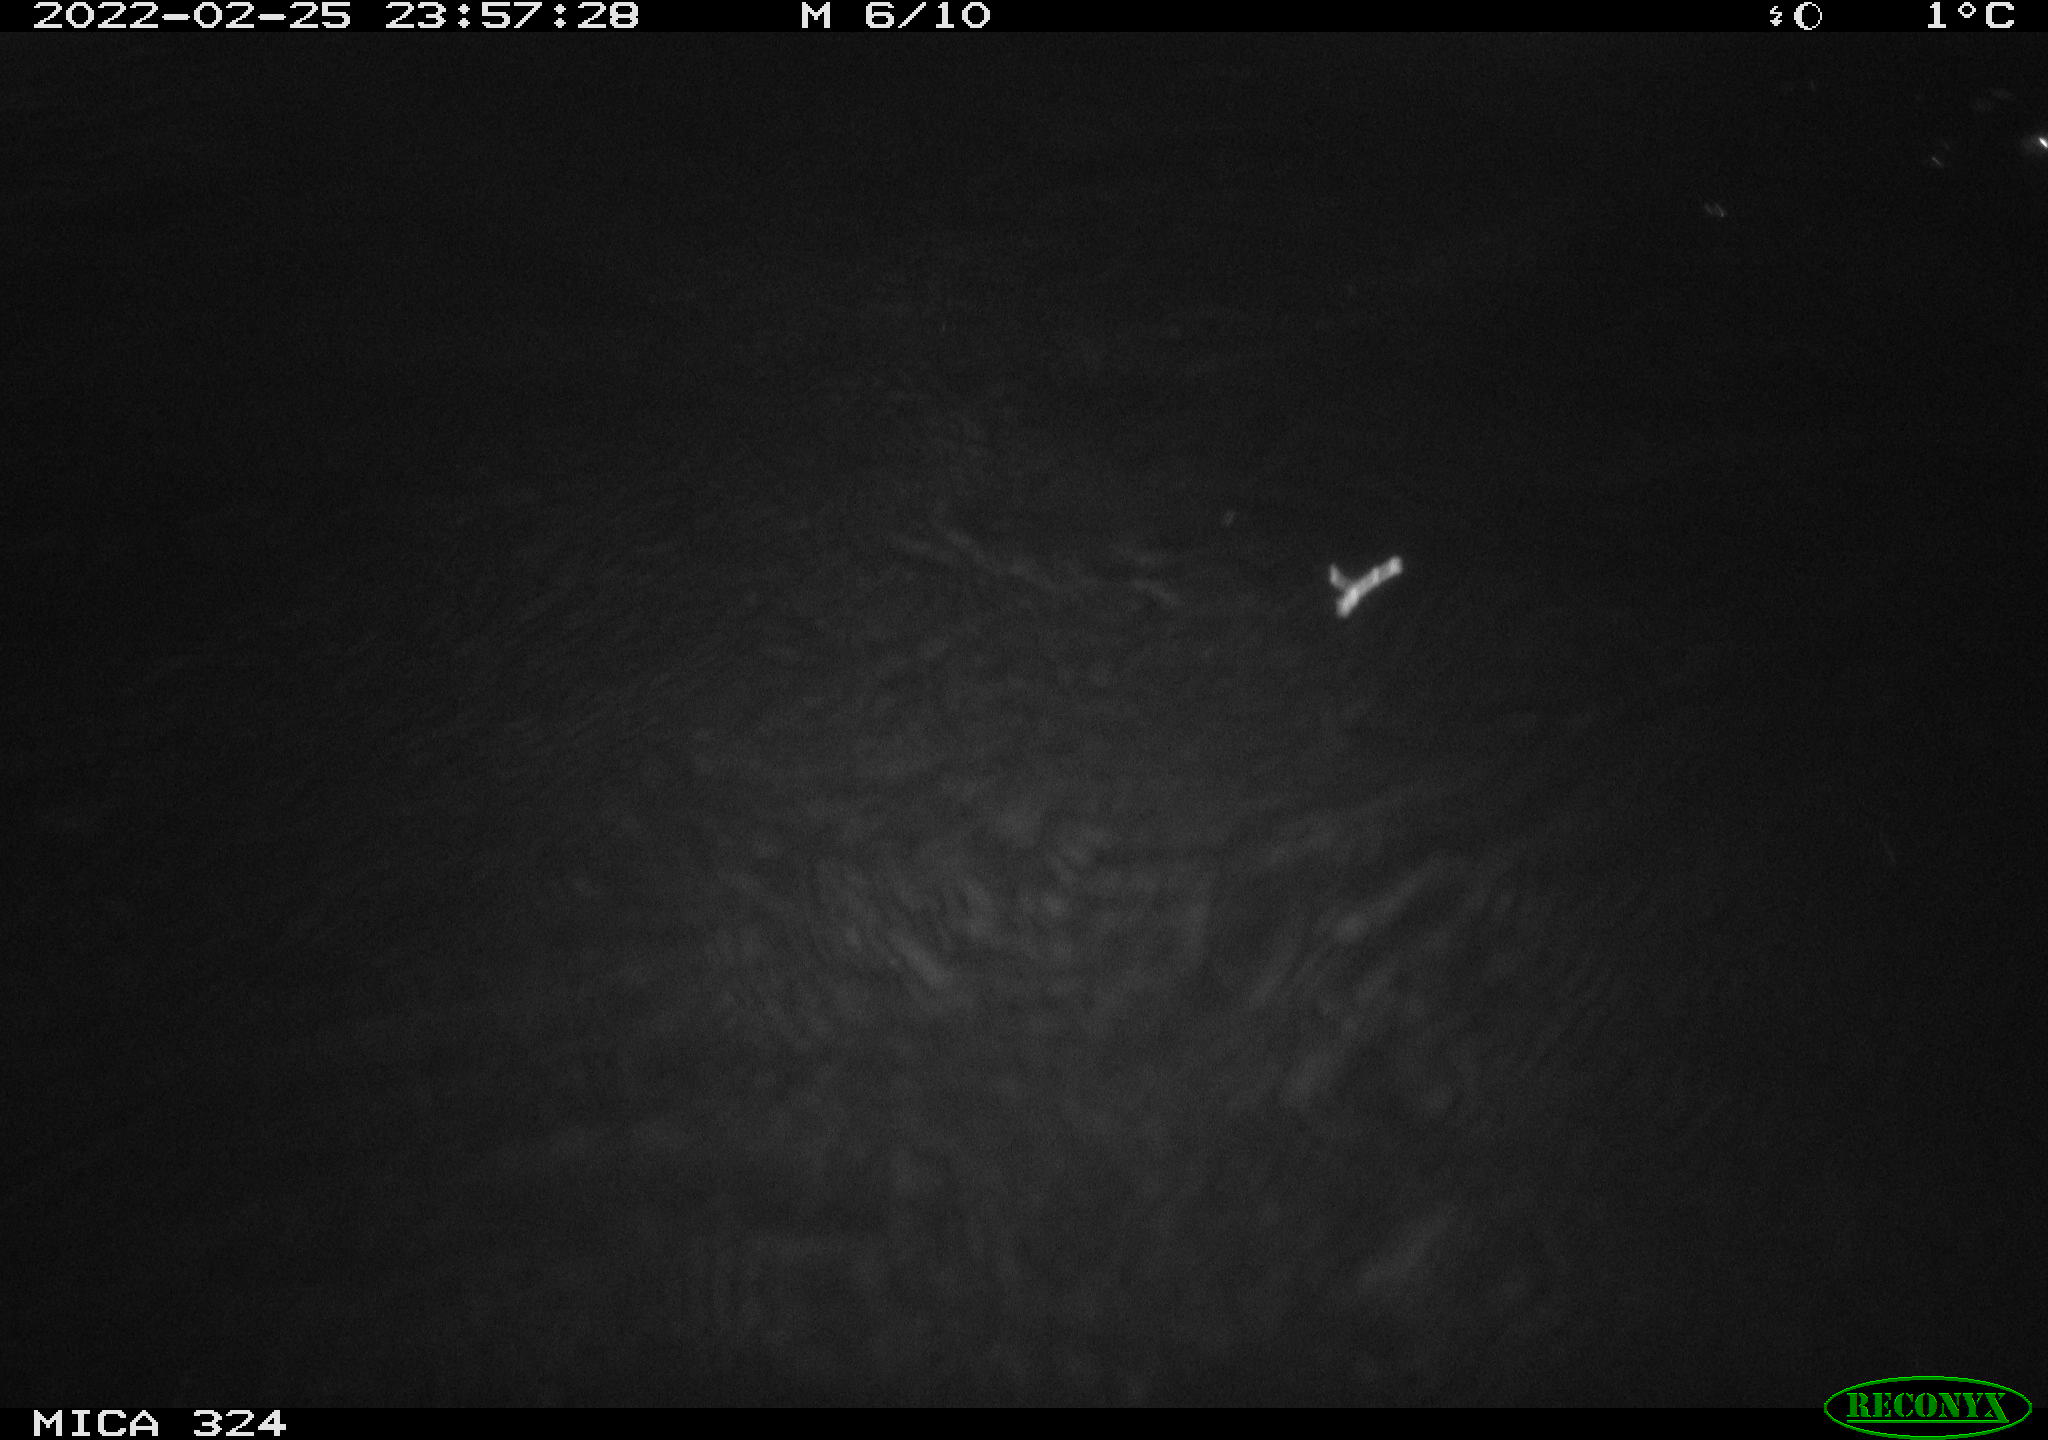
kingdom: Animalia
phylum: Chordata
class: Mammalia
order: Rodentia
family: Cricetidae
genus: Ondatra
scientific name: Ondatra zibethicus
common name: Muskrat
